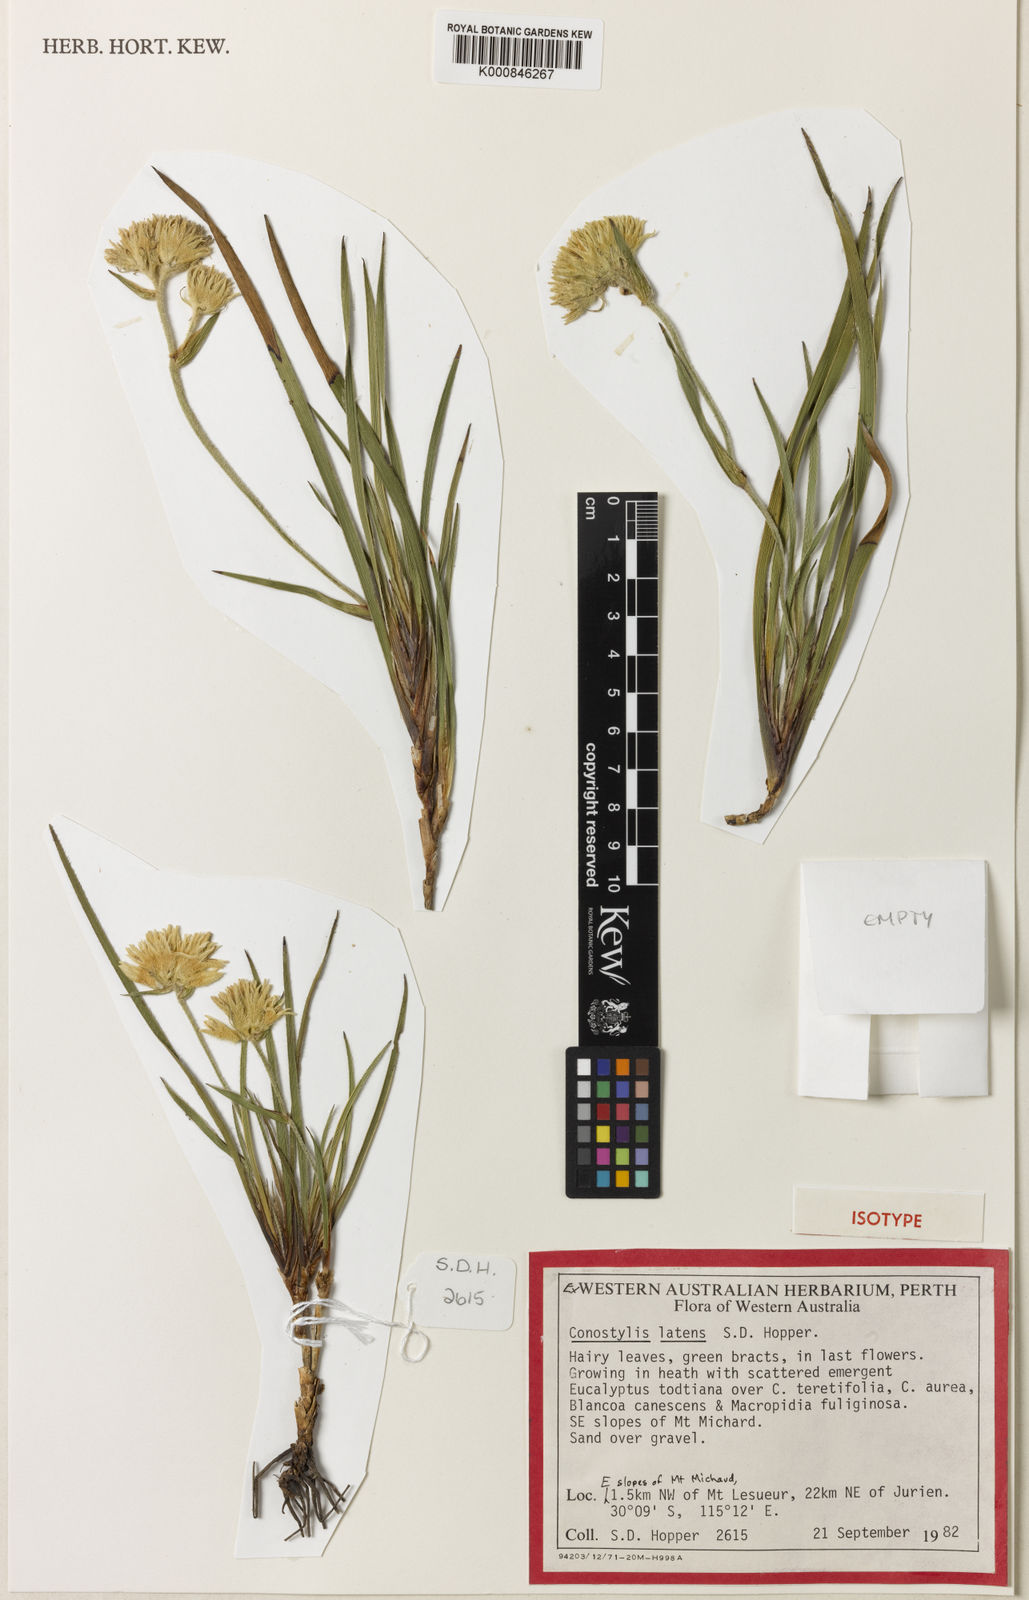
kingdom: Plantae
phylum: Tracheophyta
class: Liliopsida
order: Commelinales
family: Haemodoraceae
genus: Conostylis
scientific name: Conostylis latens
